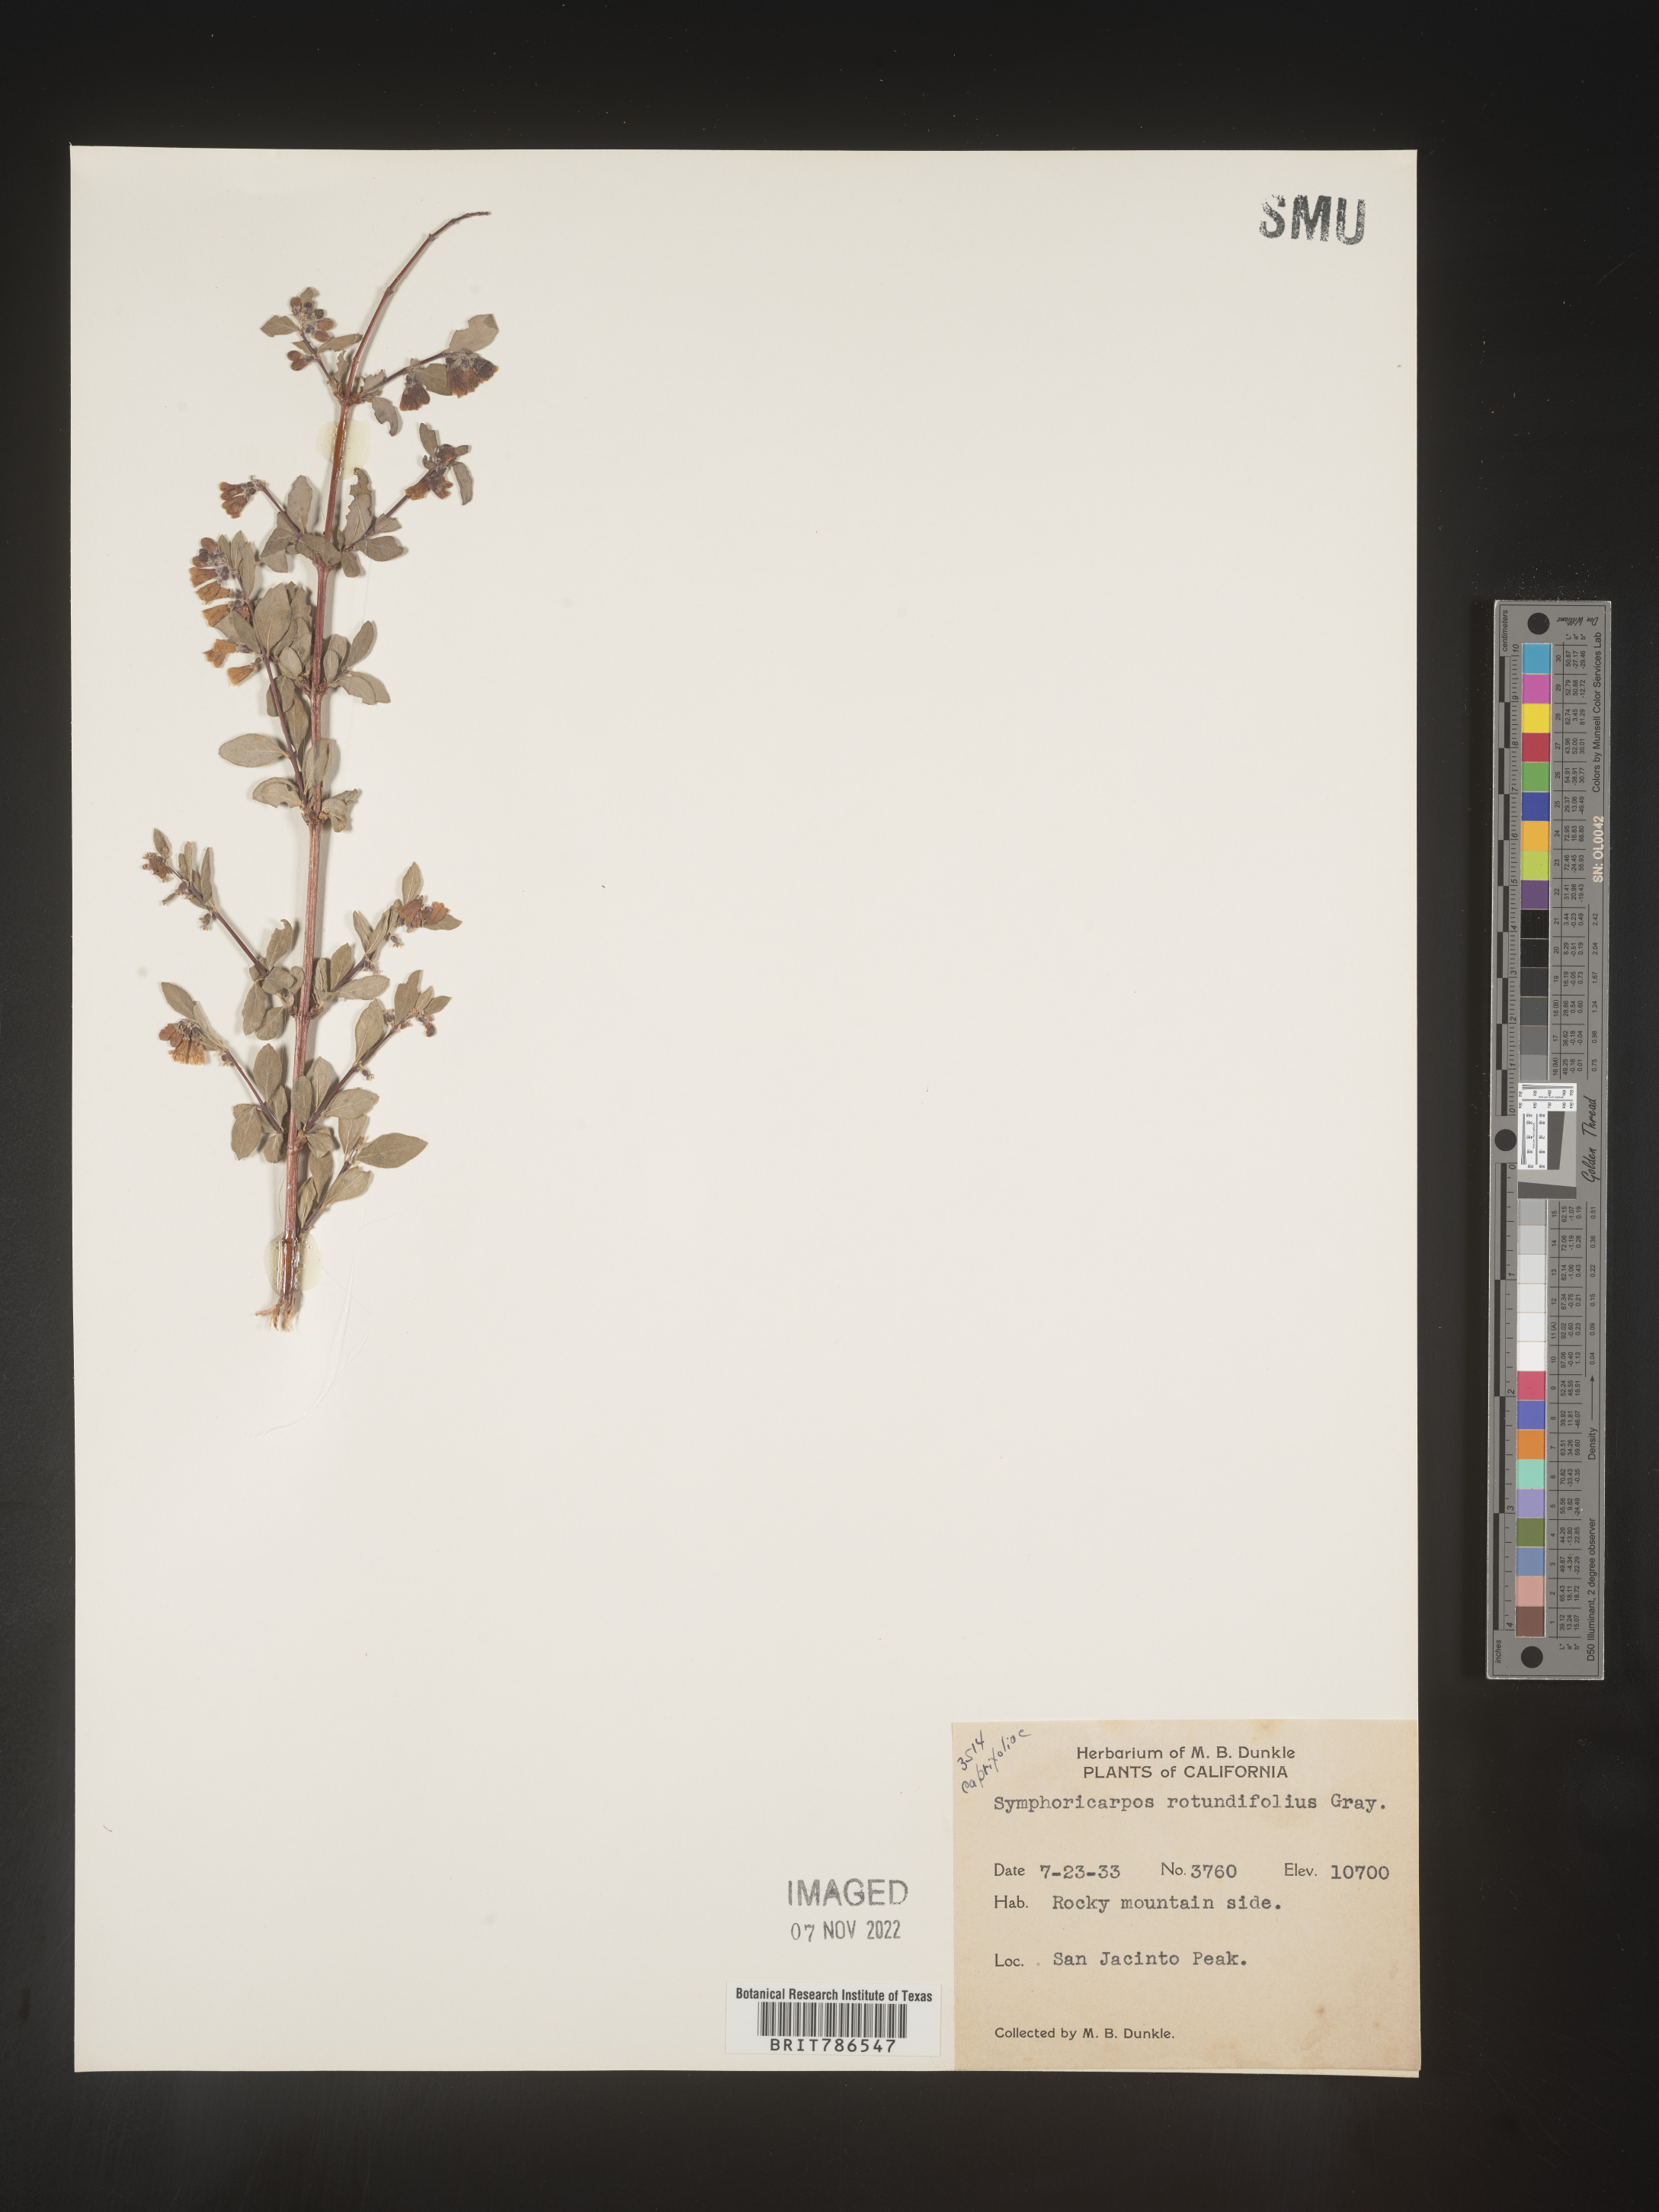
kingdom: Plantae
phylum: Tracheophyta
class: Magnoliopsida
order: Dipsacales
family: Caprifoliaceae
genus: Symphoricarpos
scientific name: Symphoricarpos
